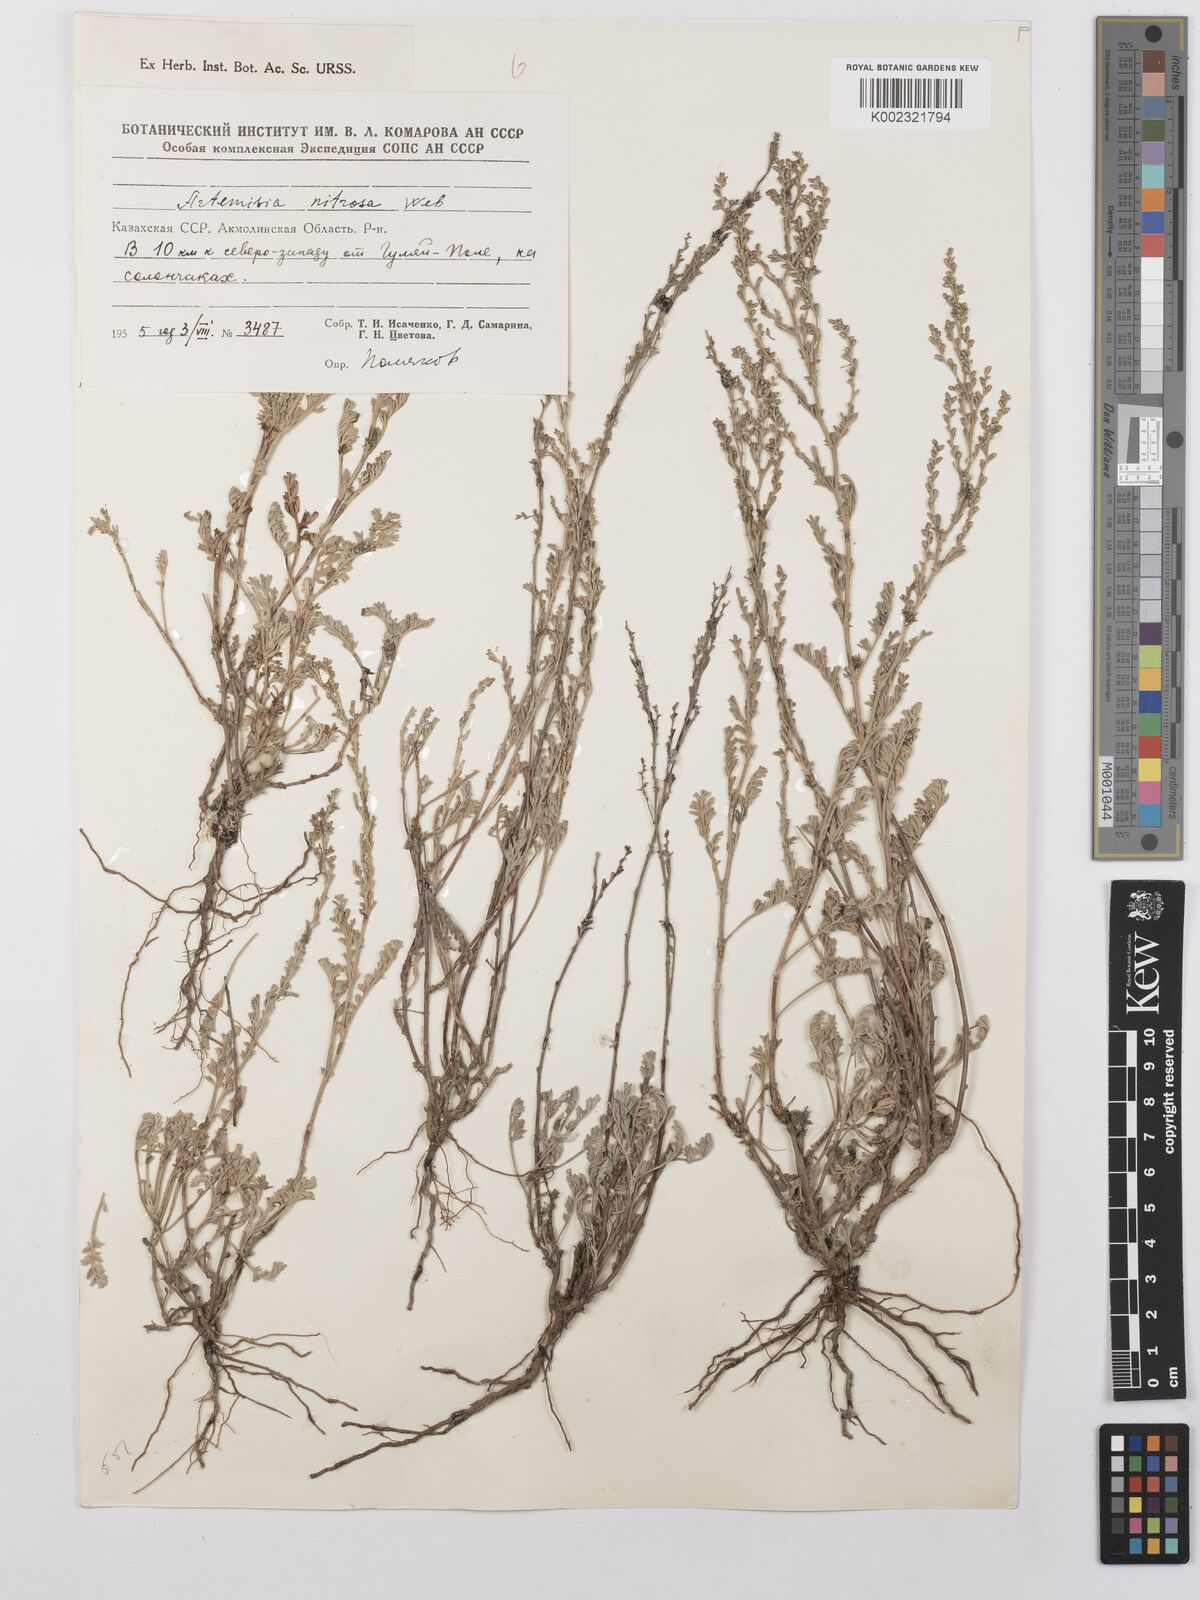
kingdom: Plantae
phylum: Tracheophyta
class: Magnoliopsida
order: Asterales
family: Asteraceae
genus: Artemisia
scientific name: Artemisia nitrosa
